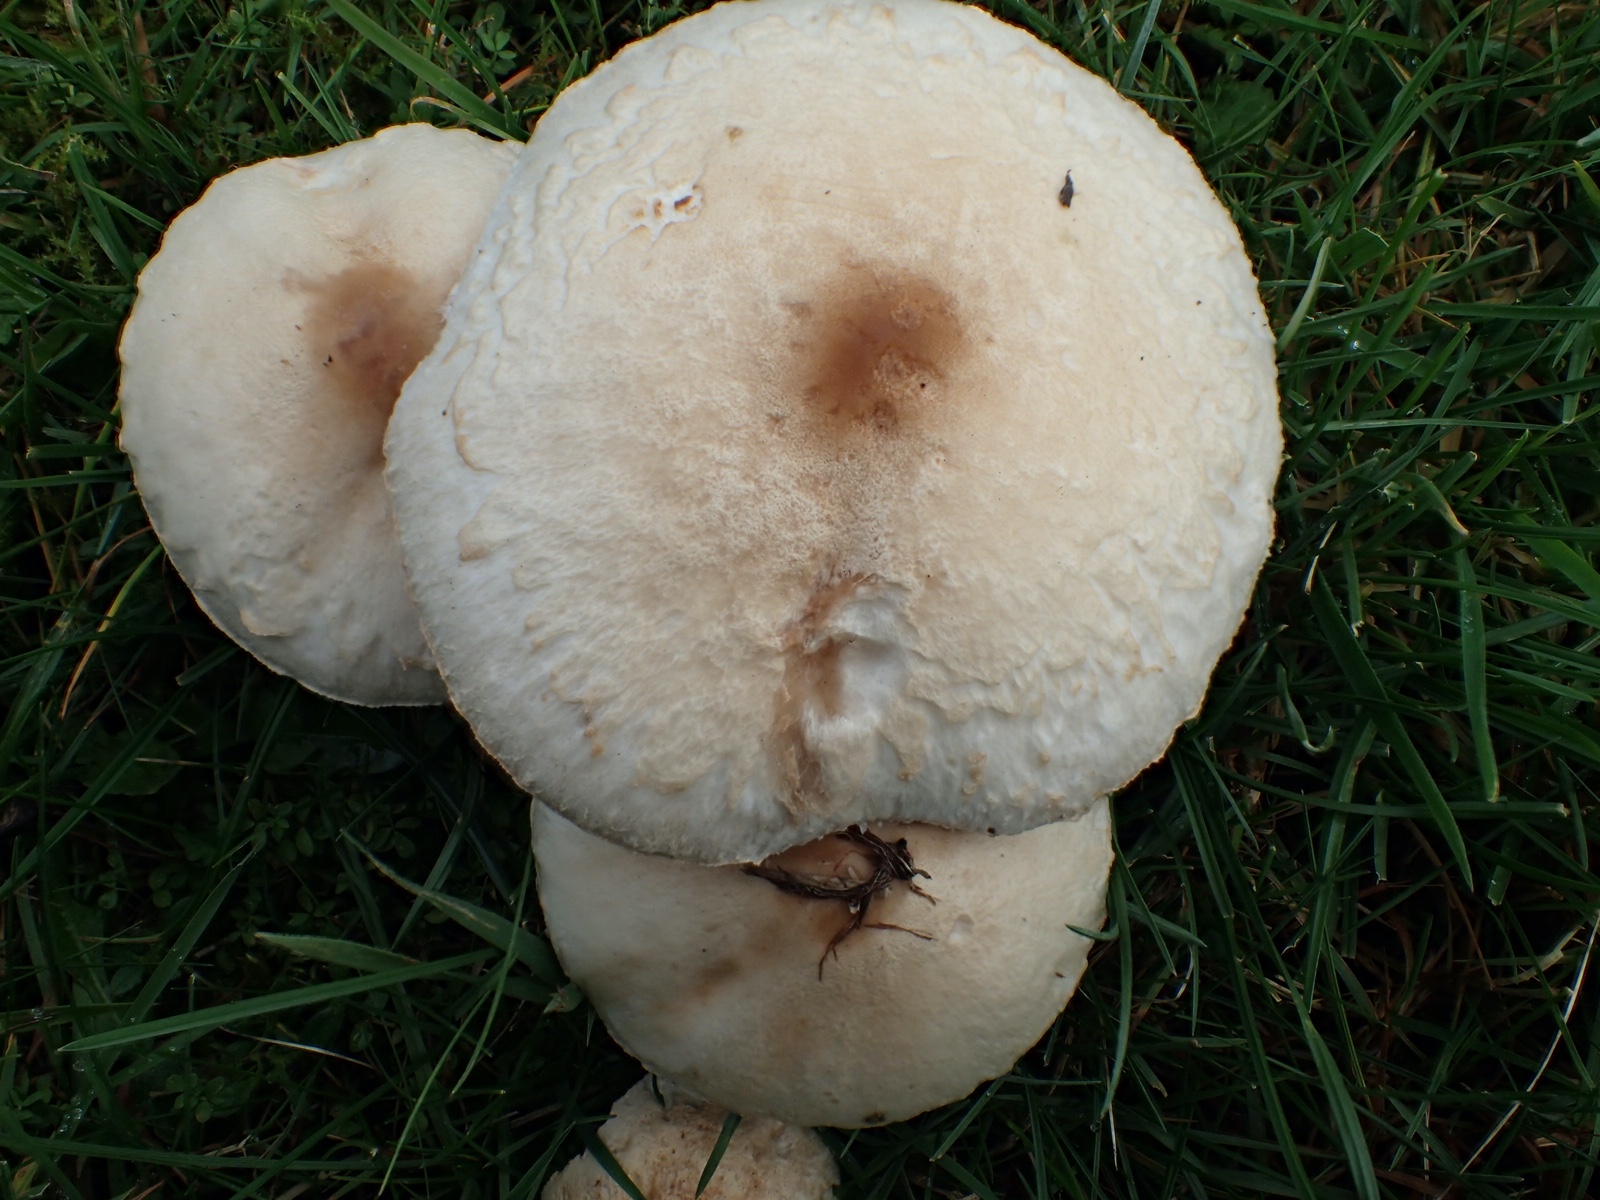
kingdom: Fungi
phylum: Basidiomycota
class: Agaricomycetes
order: Agaricales
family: Agaricaceae
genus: Macrolepiota
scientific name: Macrolepiota excoriata
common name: mark-kæmpeparasolhat
